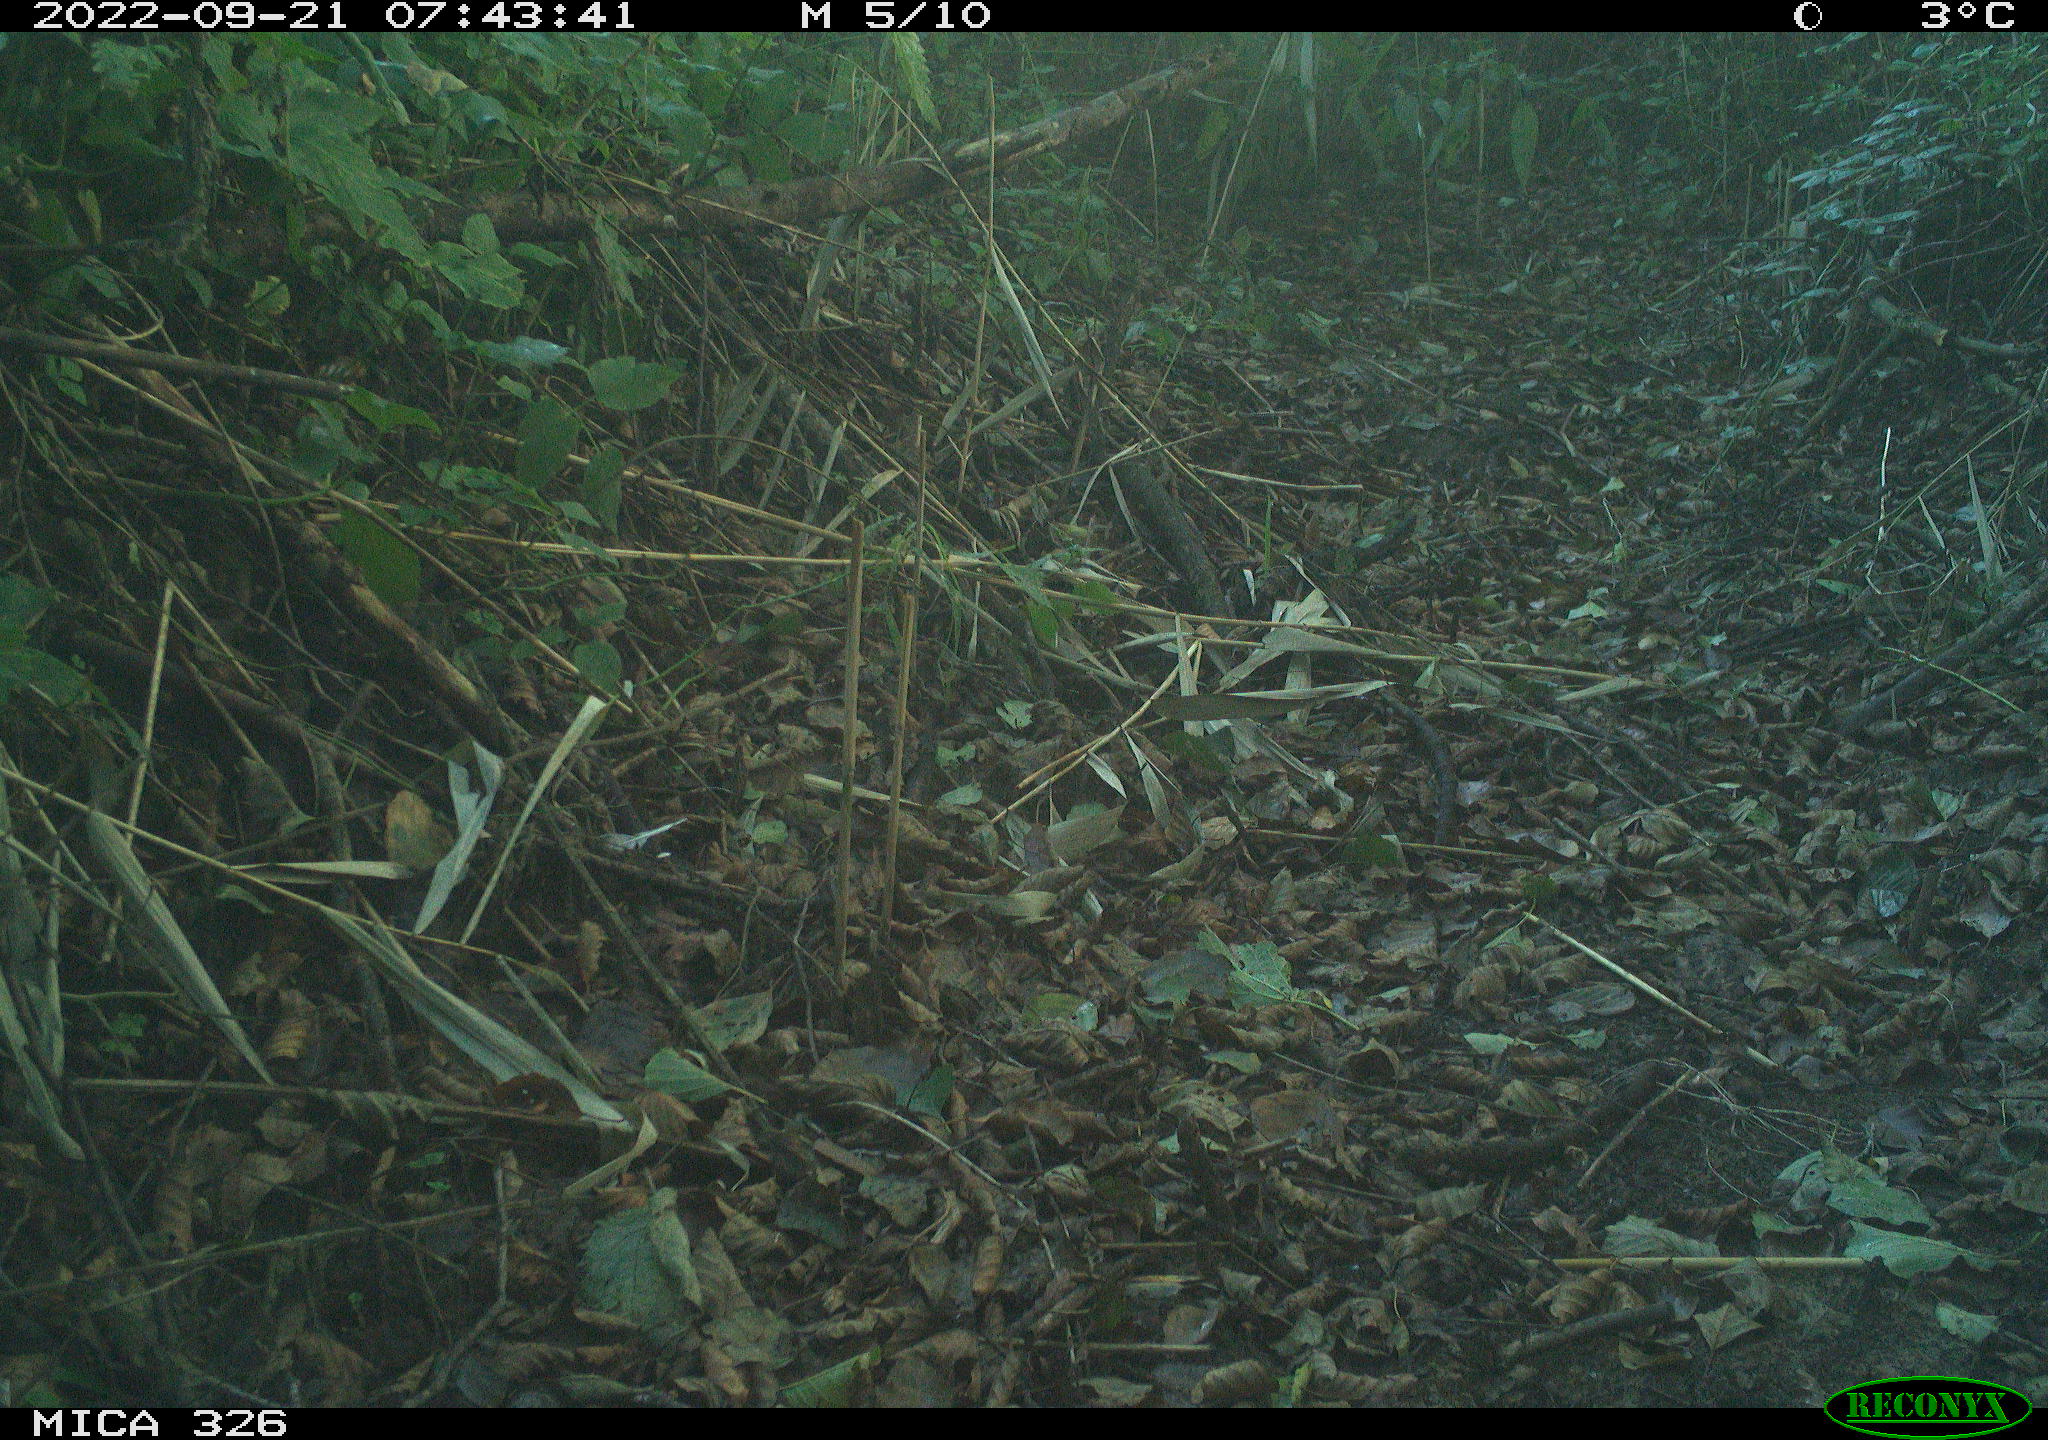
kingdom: Animalia
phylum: Chordata
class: Mammalia
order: Carnivora
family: Mustelidae
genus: Martes
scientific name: Martes martes
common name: European pine marten
